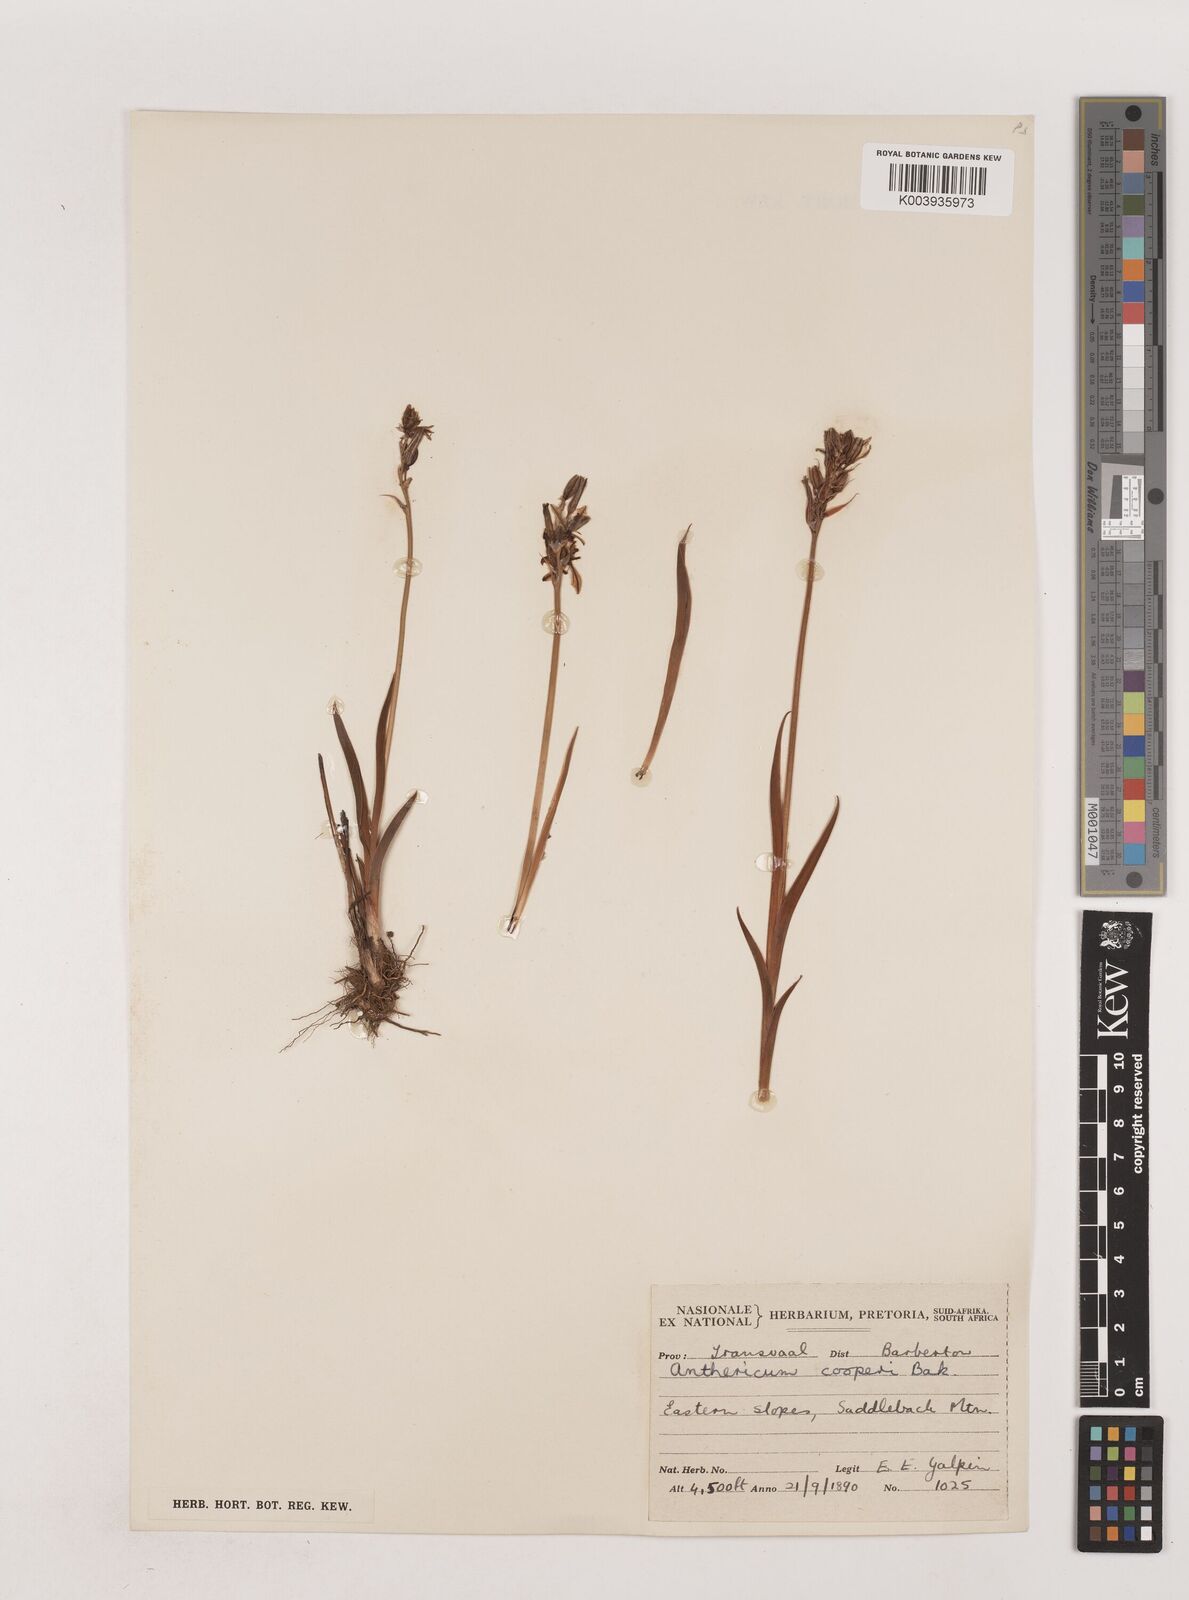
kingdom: Plantae
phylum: Tracheophyta
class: Liliopsida
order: Asparagales
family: Asparagaceae
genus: Chlorophytum
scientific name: Chlorophytum cooperi
